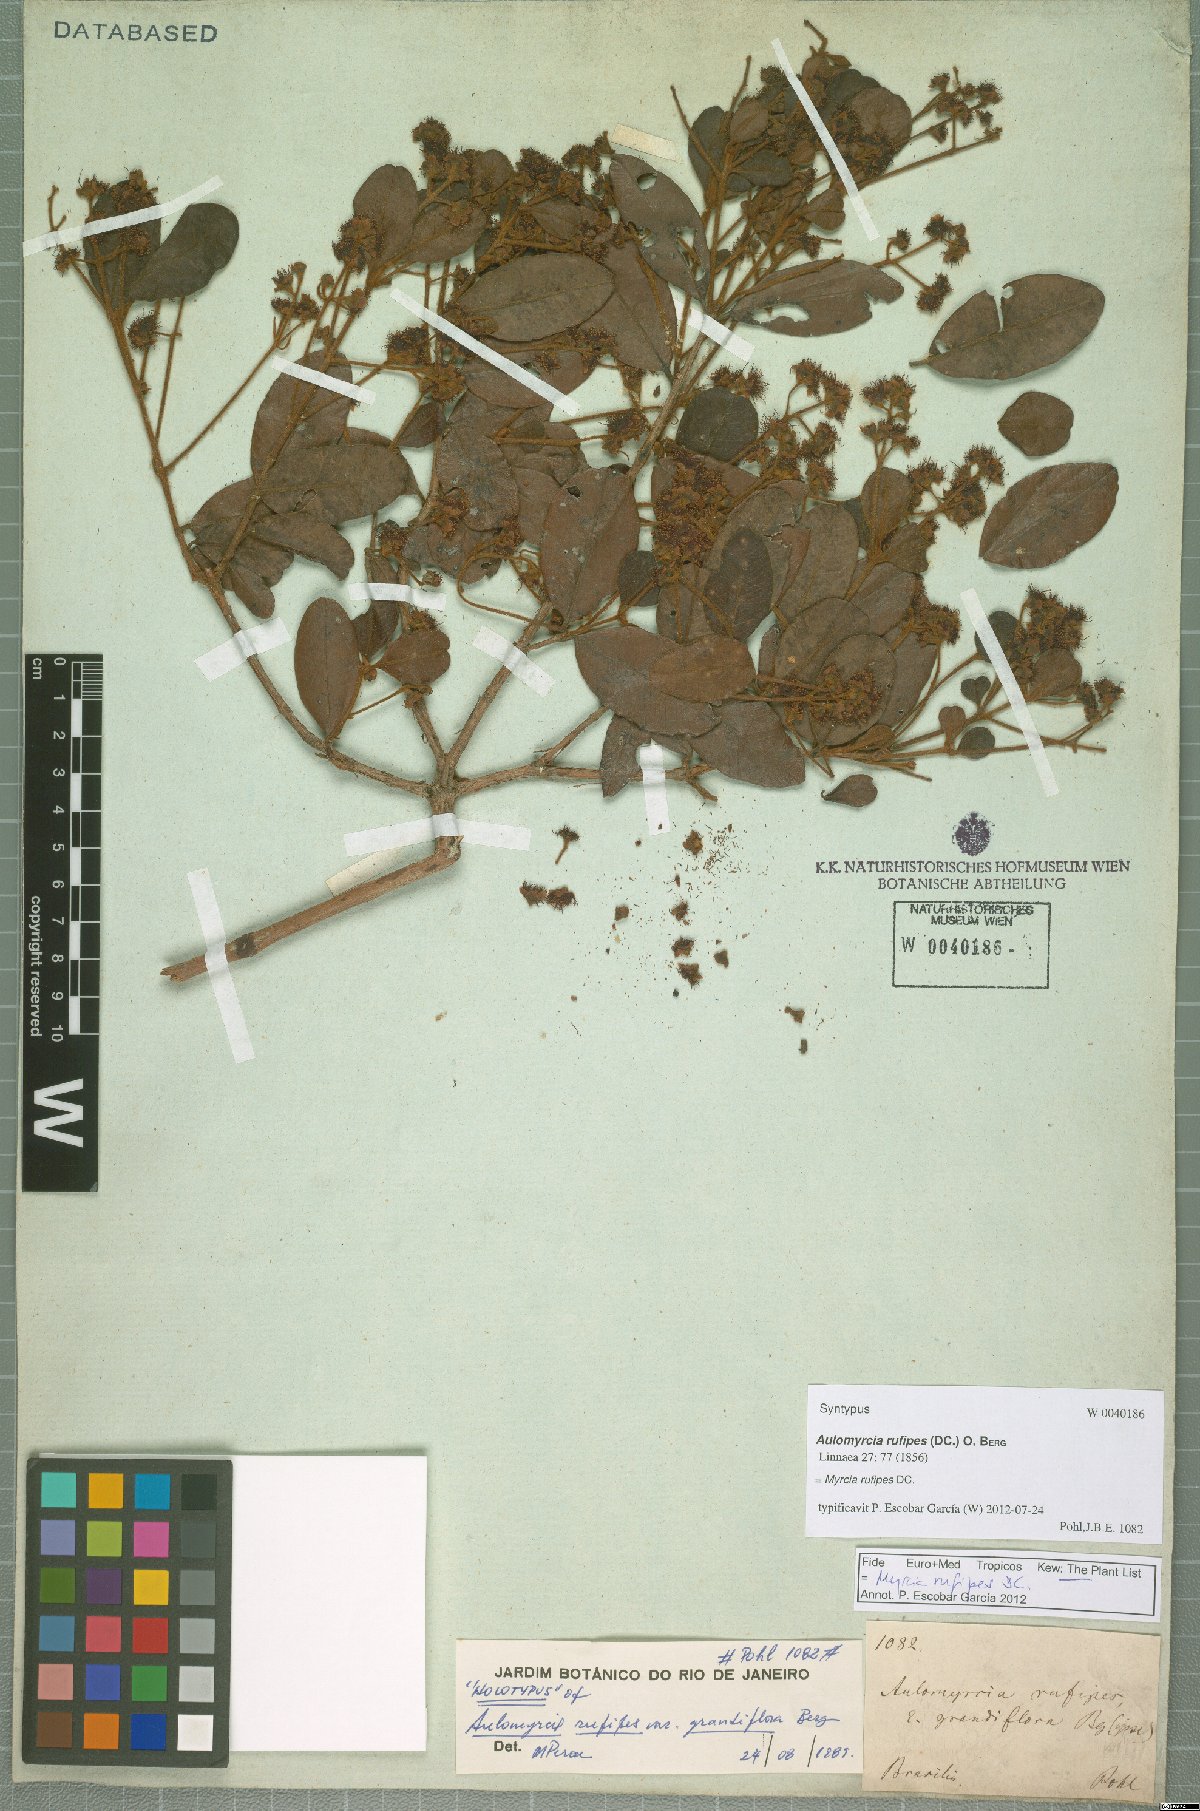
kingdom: Plantae
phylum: Tracheophyta
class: Magnoliopsida
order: Myrtales
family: Myrtaceae
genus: Myrcia
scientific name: Myrcia rufipes
